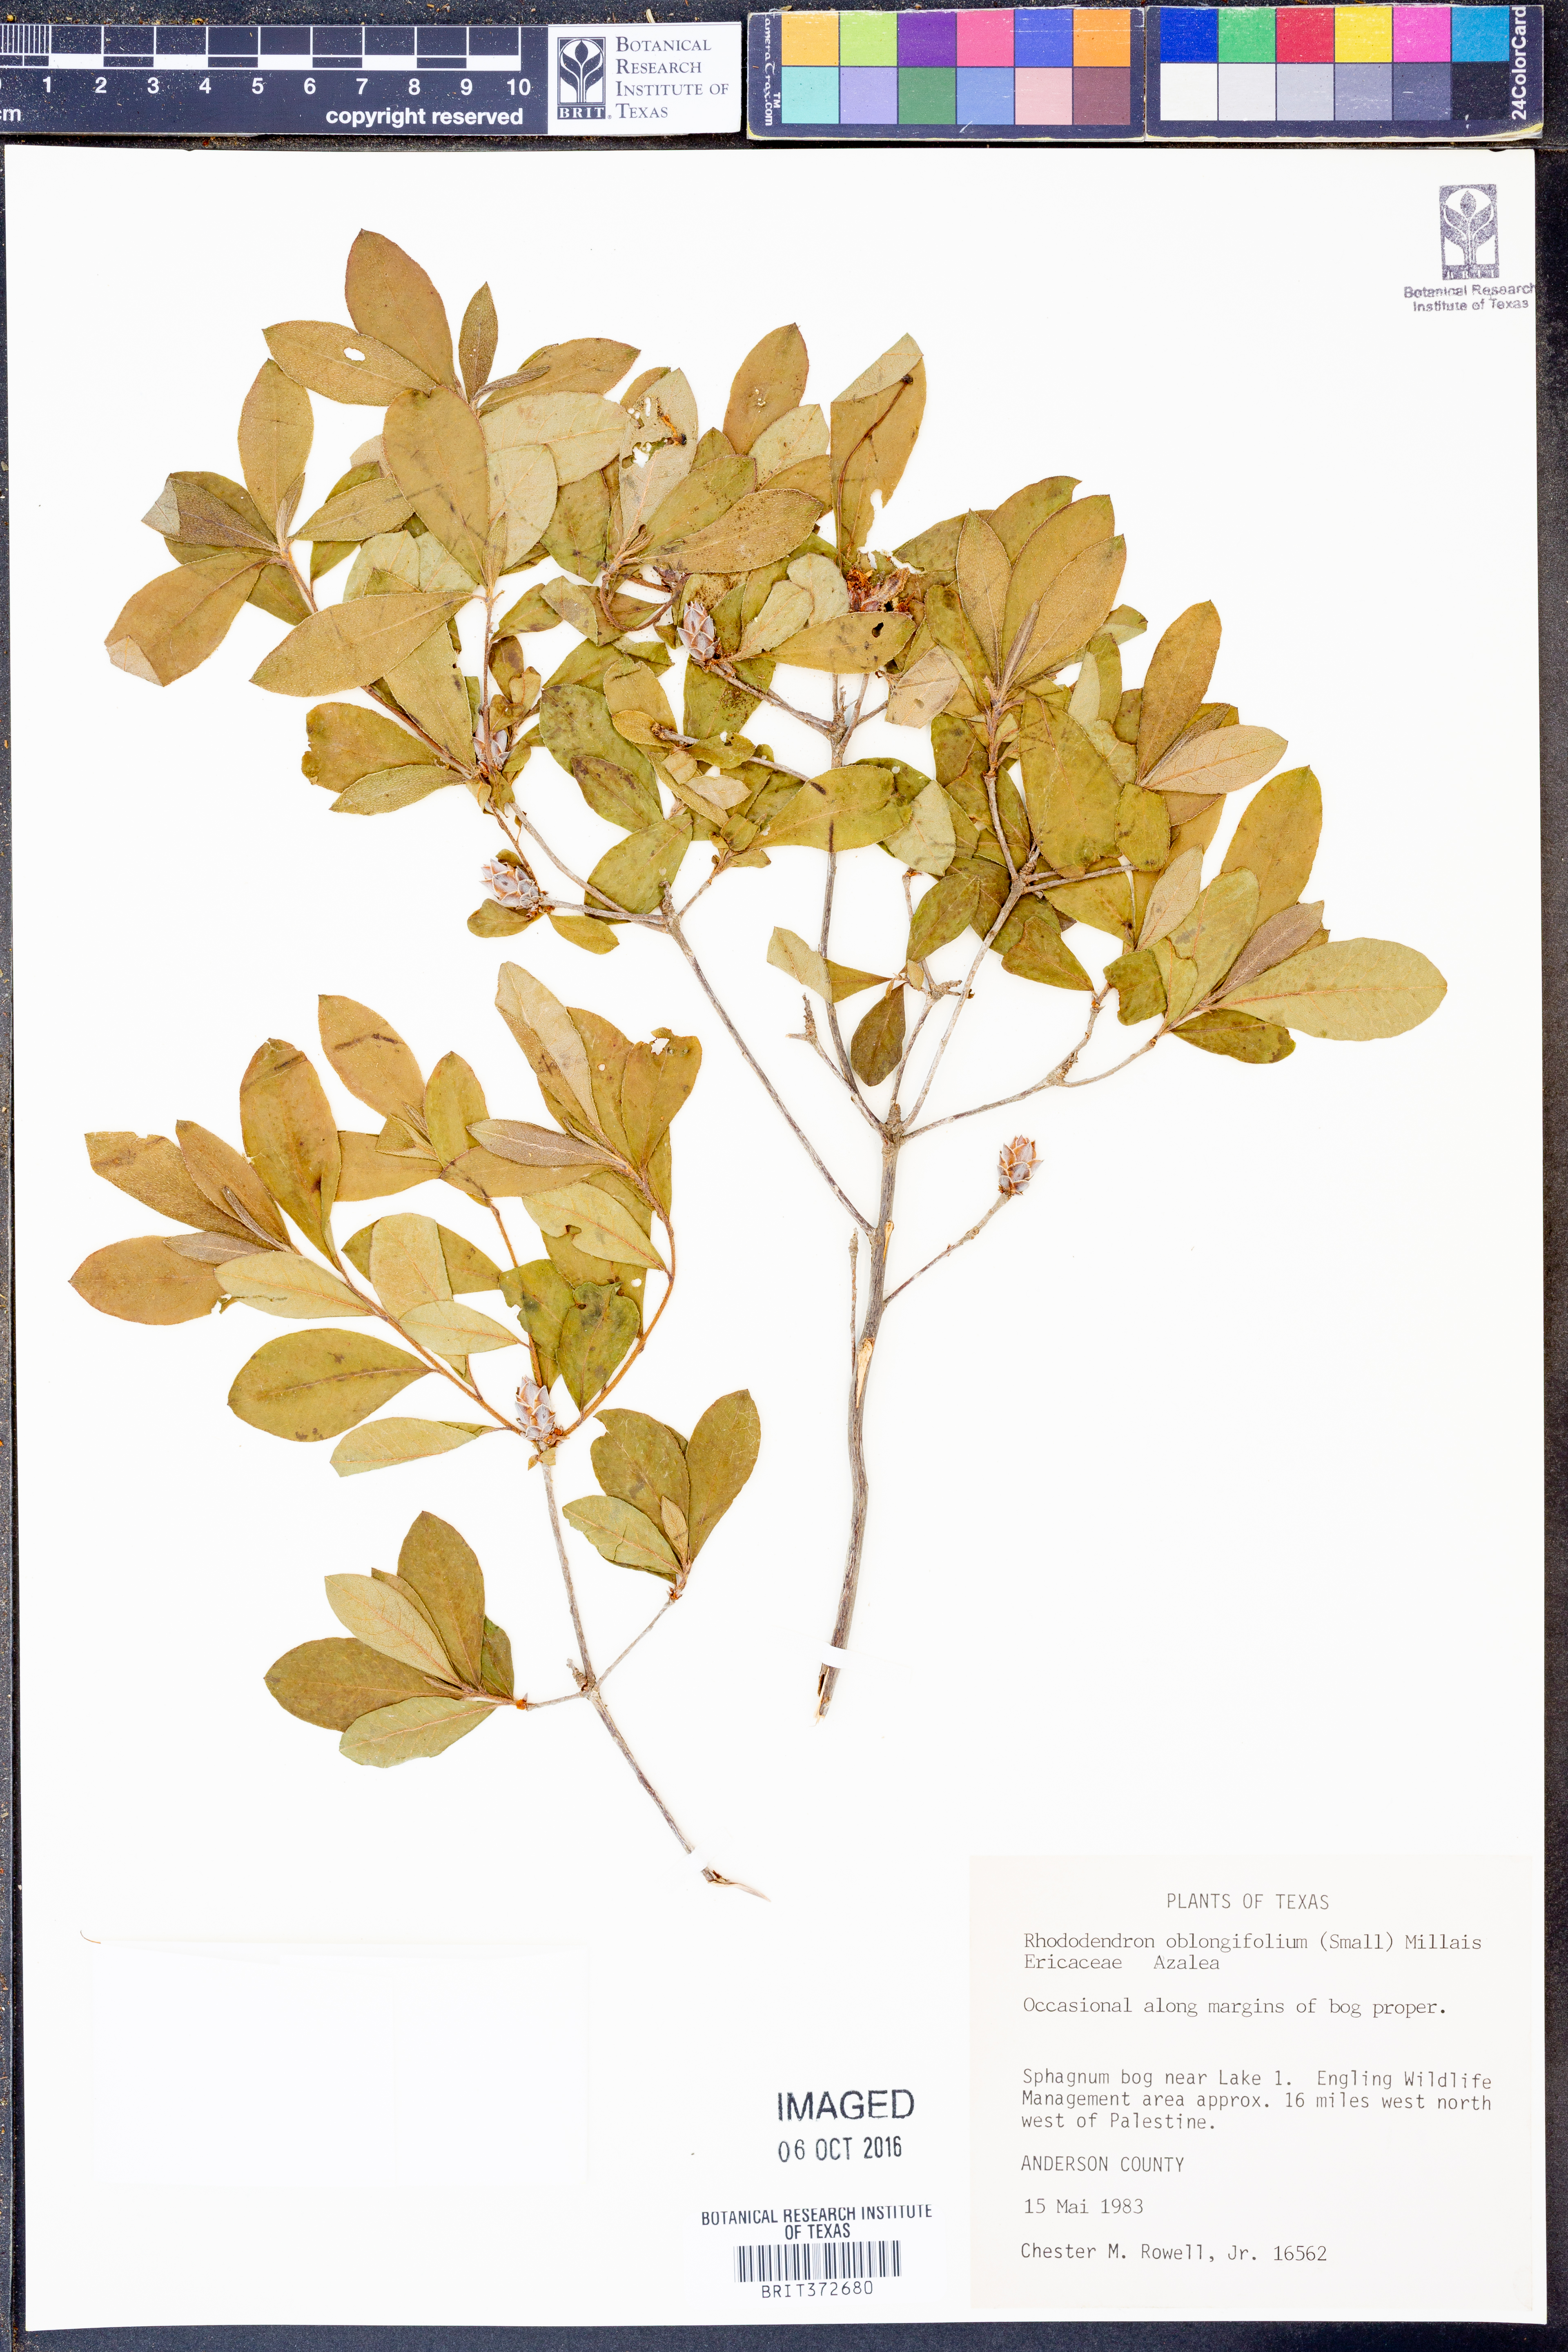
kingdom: Plantae
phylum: Tracheophyta
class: Magnoliopsida
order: Ericales
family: Ericaceae
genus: Rhododendron
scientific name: Rhododendron viscosum
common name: Clammy azalea
